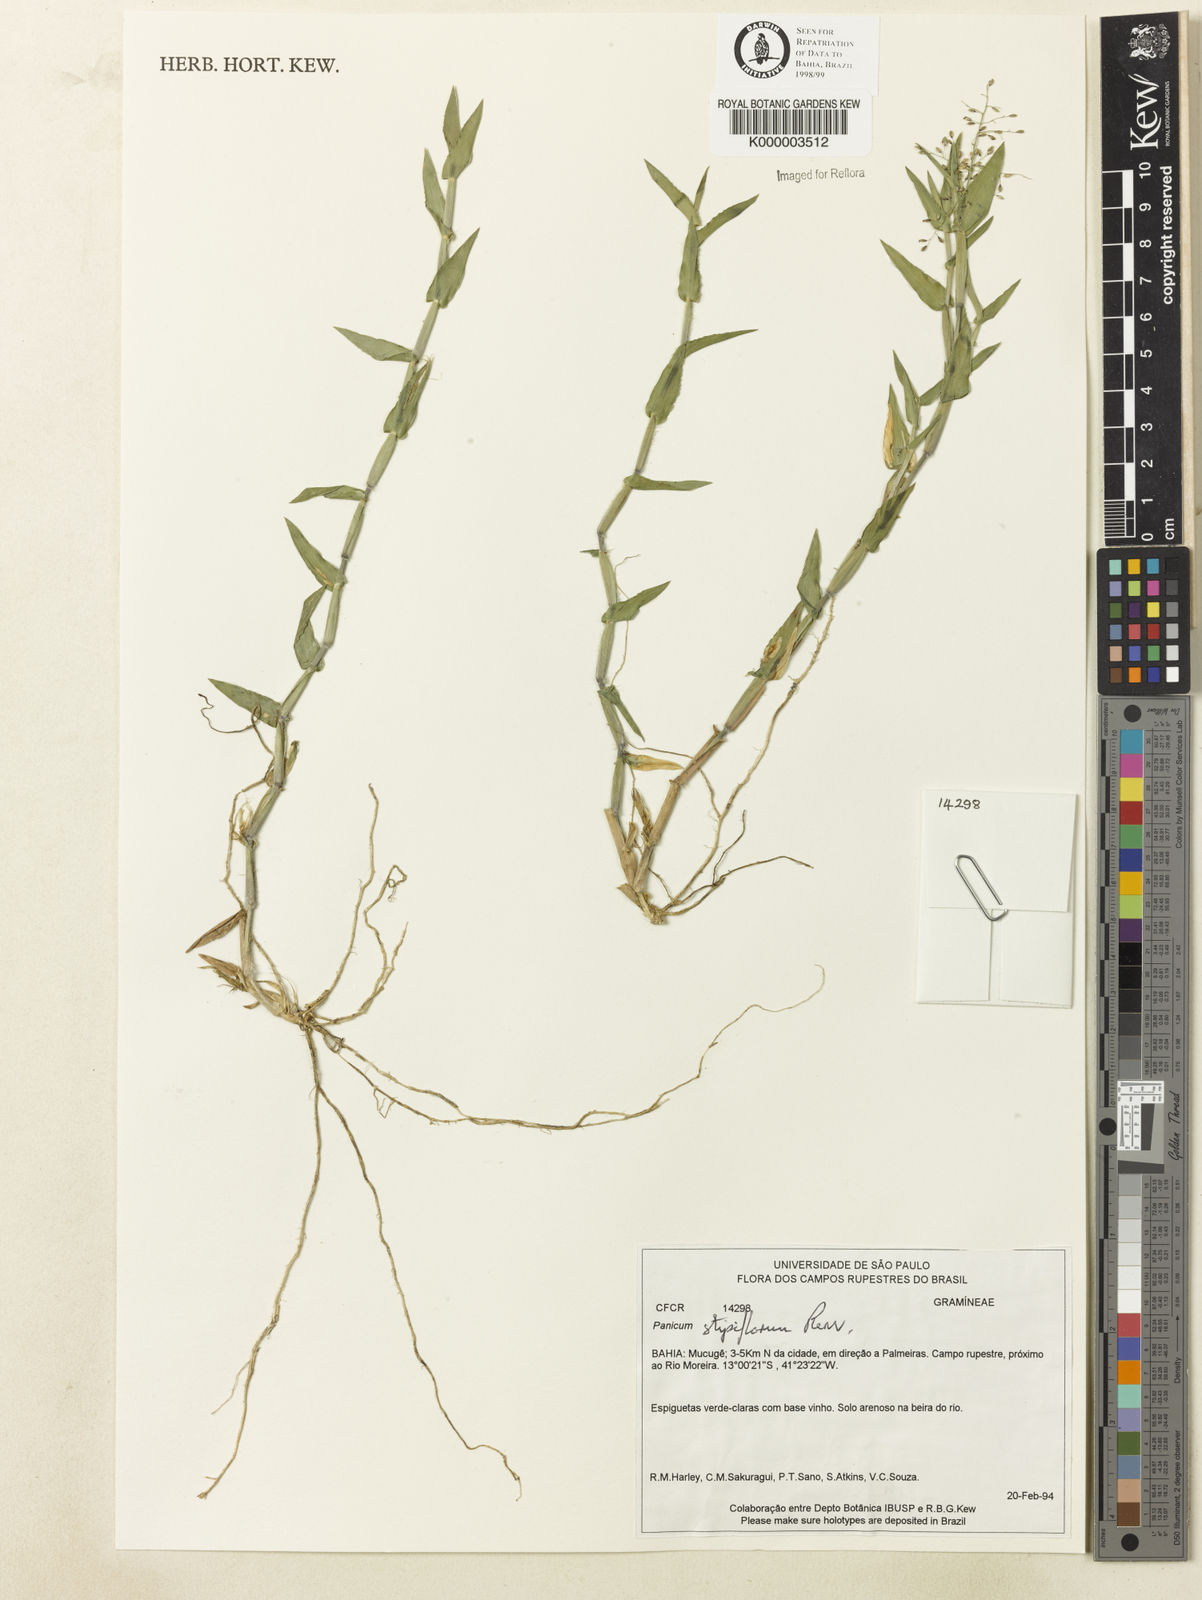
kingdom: Plantae
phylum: Tracheophyta
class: Liliopsida
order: Poales
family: Poaceae
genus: Dichanthelium
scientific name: Dichanthelium stipiflorum
